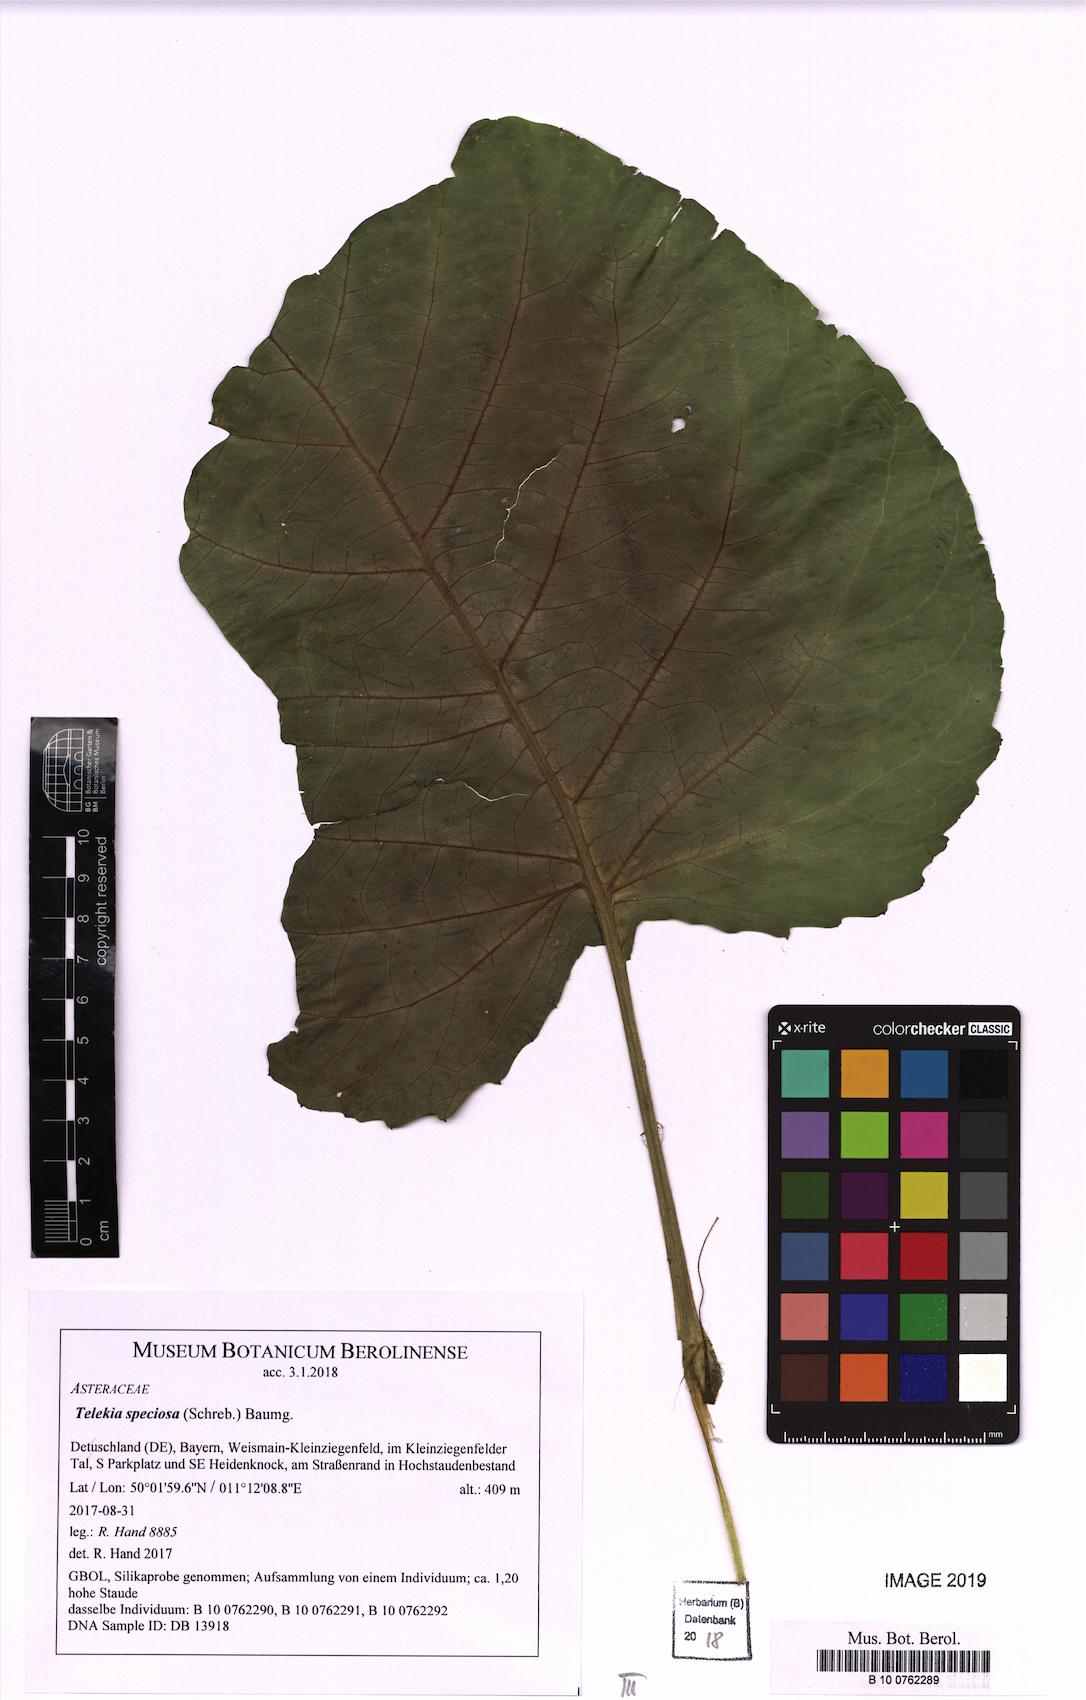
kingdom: Plantae
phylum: Tracheophyta
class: Magnoliopsida
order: Asterales
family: Asteraceae
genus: Telekia
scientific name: Telekia speciosa
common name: Yellow oxeye
